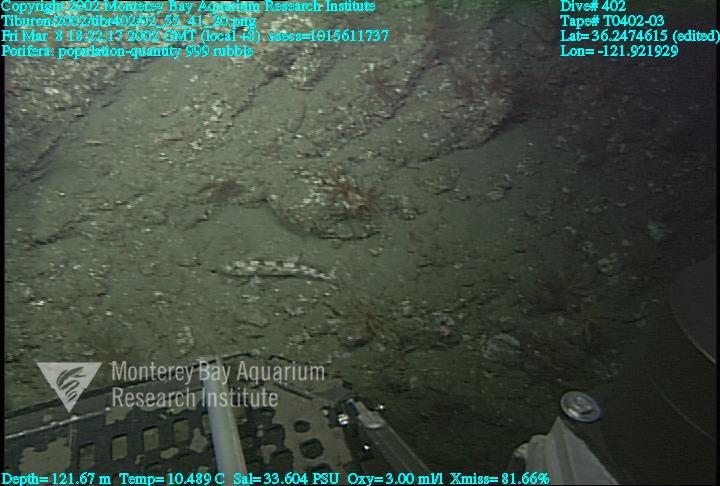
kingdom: Animalia
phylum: Porifera
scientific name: Porifera
